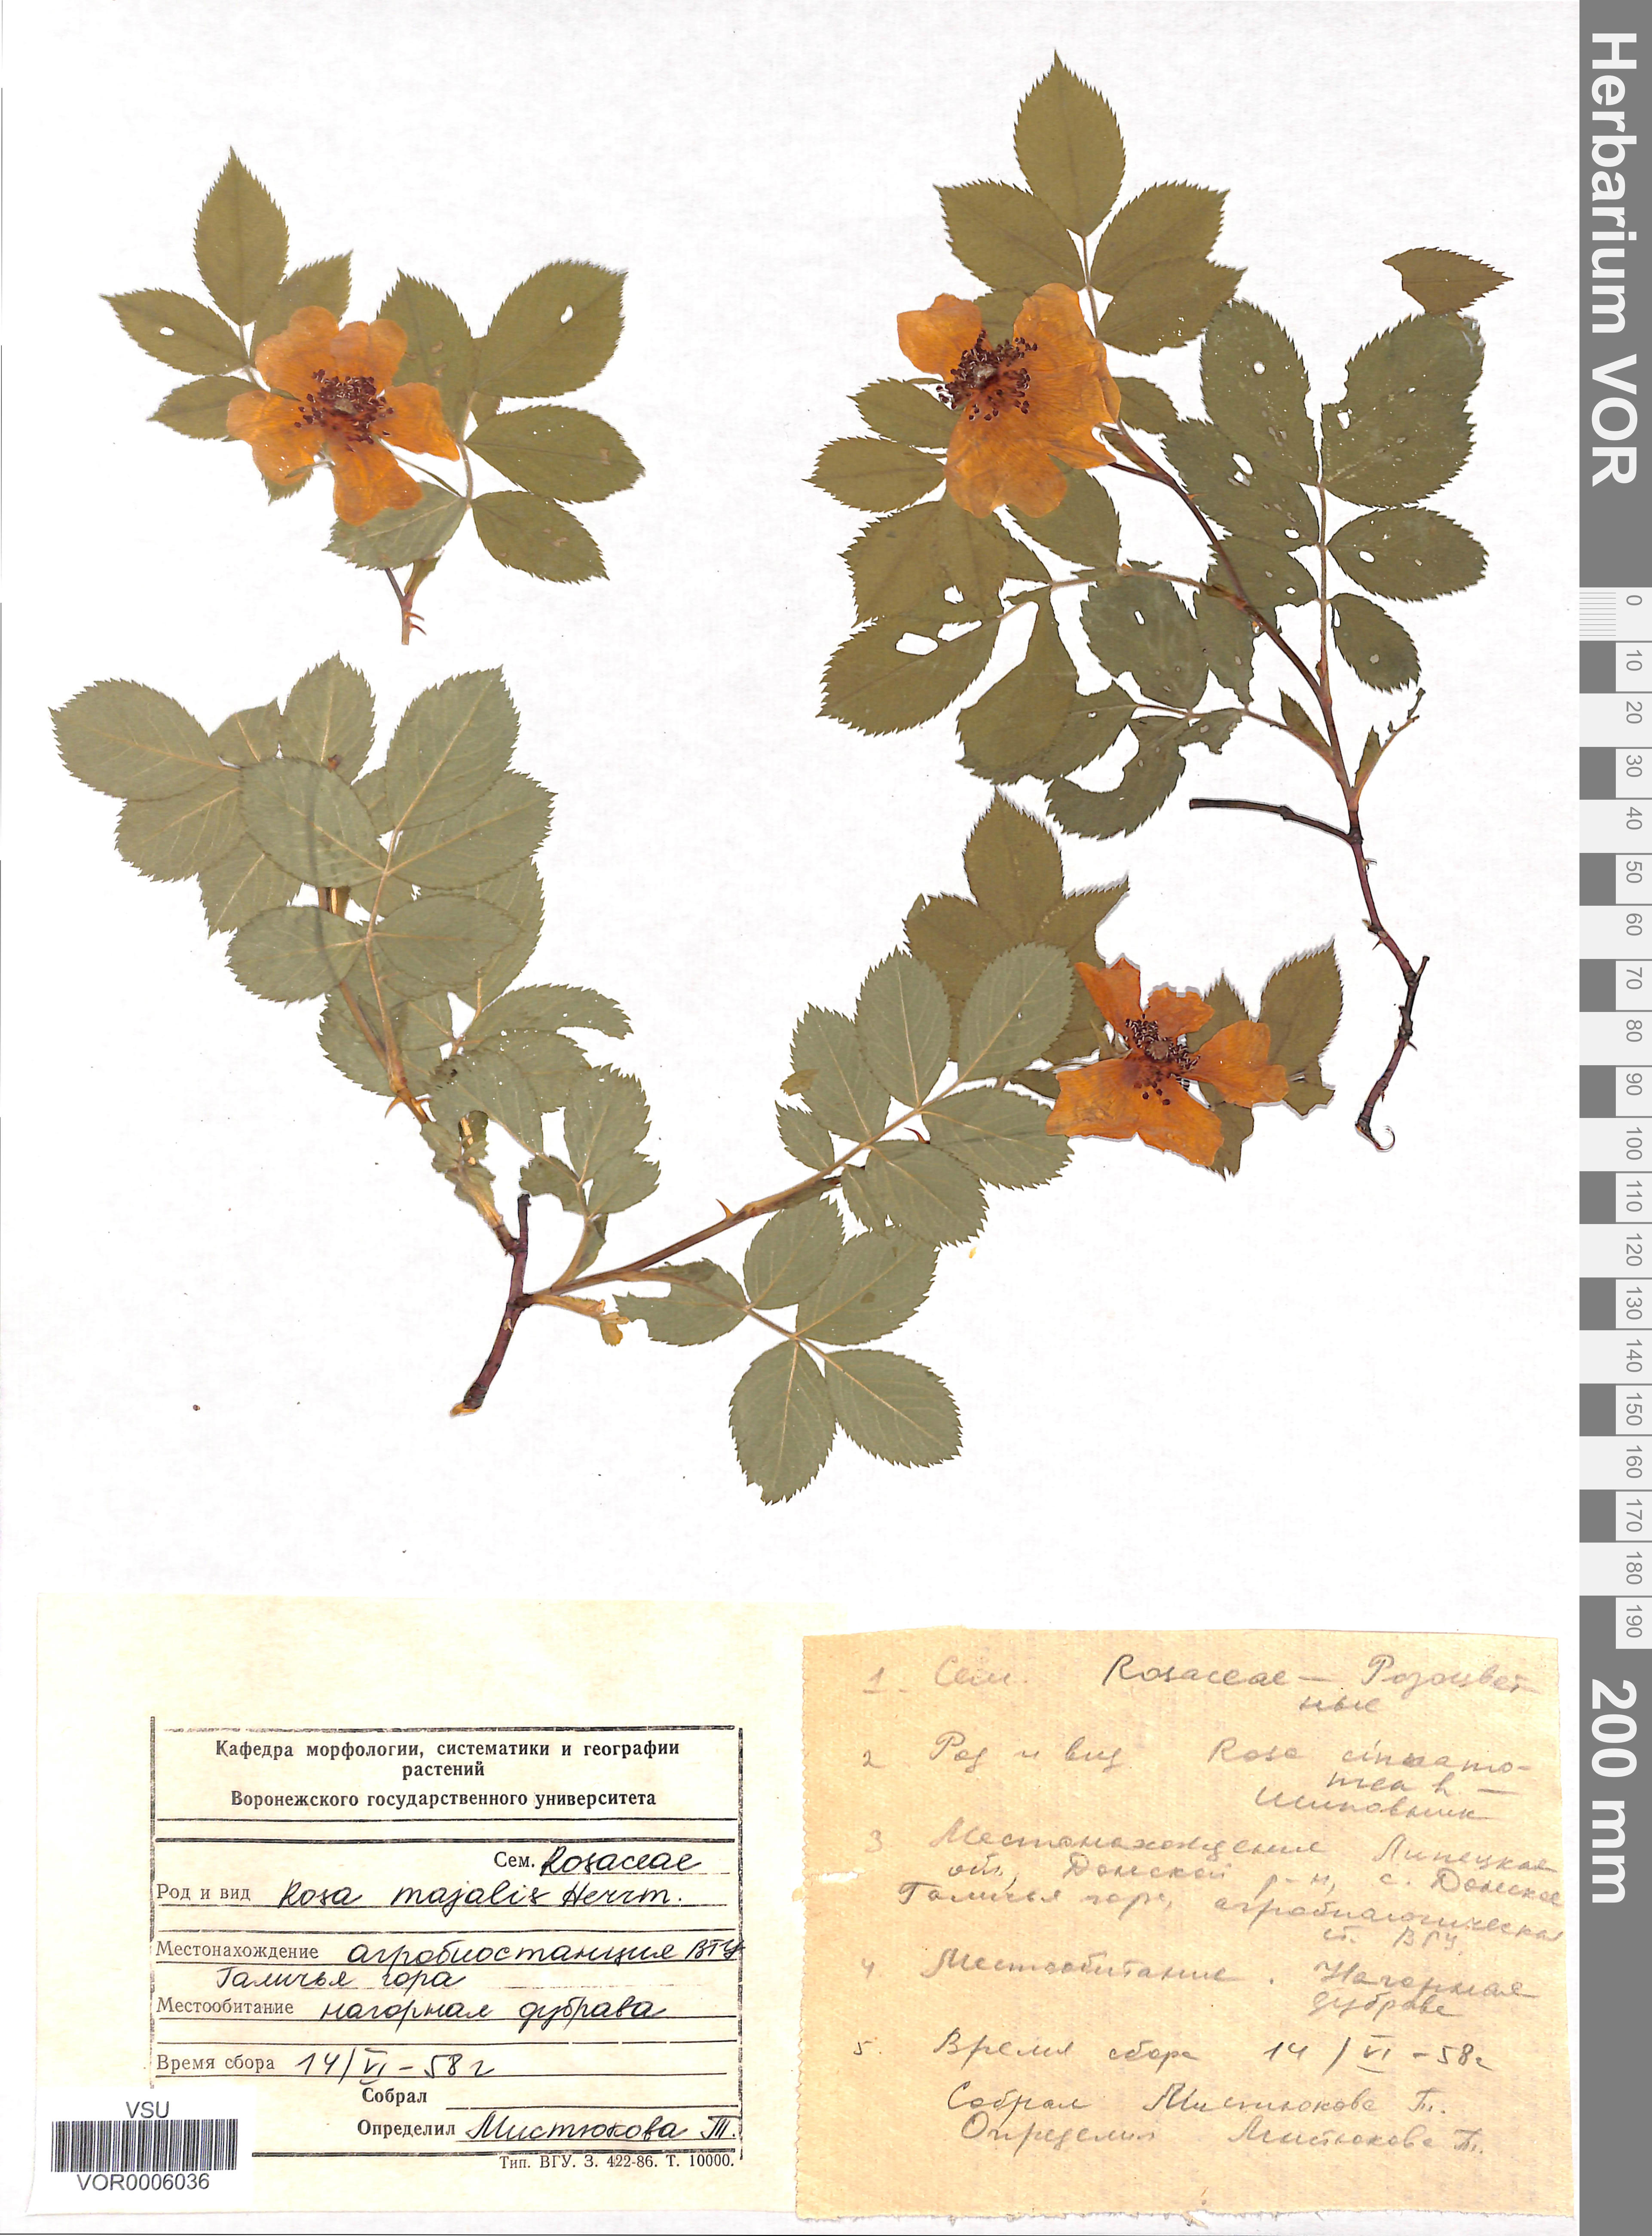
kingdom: Plantae
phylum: Tracheophyta
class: Magnoliopsida
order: Rosales
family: Rosaceae
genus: Rosa
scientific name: Rosa majalis
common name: Cinnamon rose
